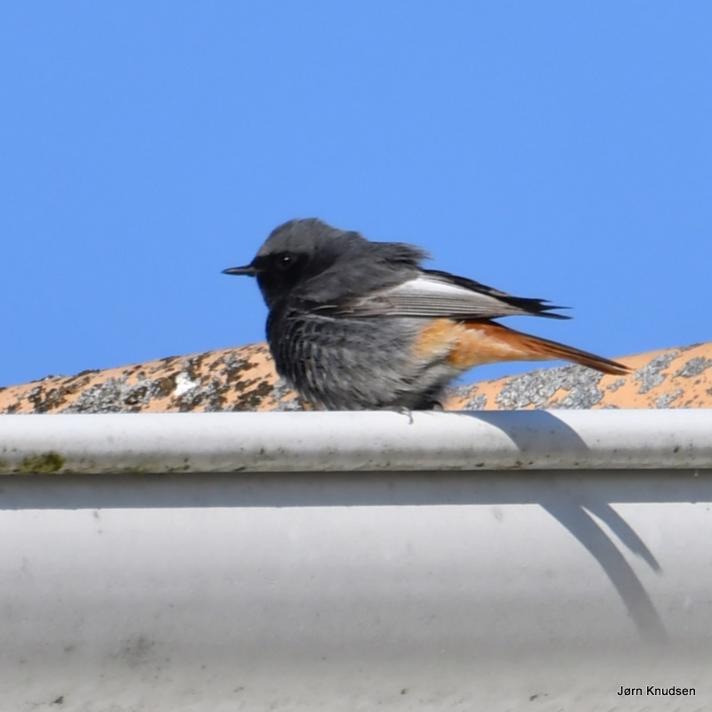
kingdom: Animalia
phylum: Chordata
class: Aves
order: Passeriformes
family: Muscicapidae
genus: Phoenicurus
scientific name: Phoenicurus ochruros
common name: Husrødstjert
